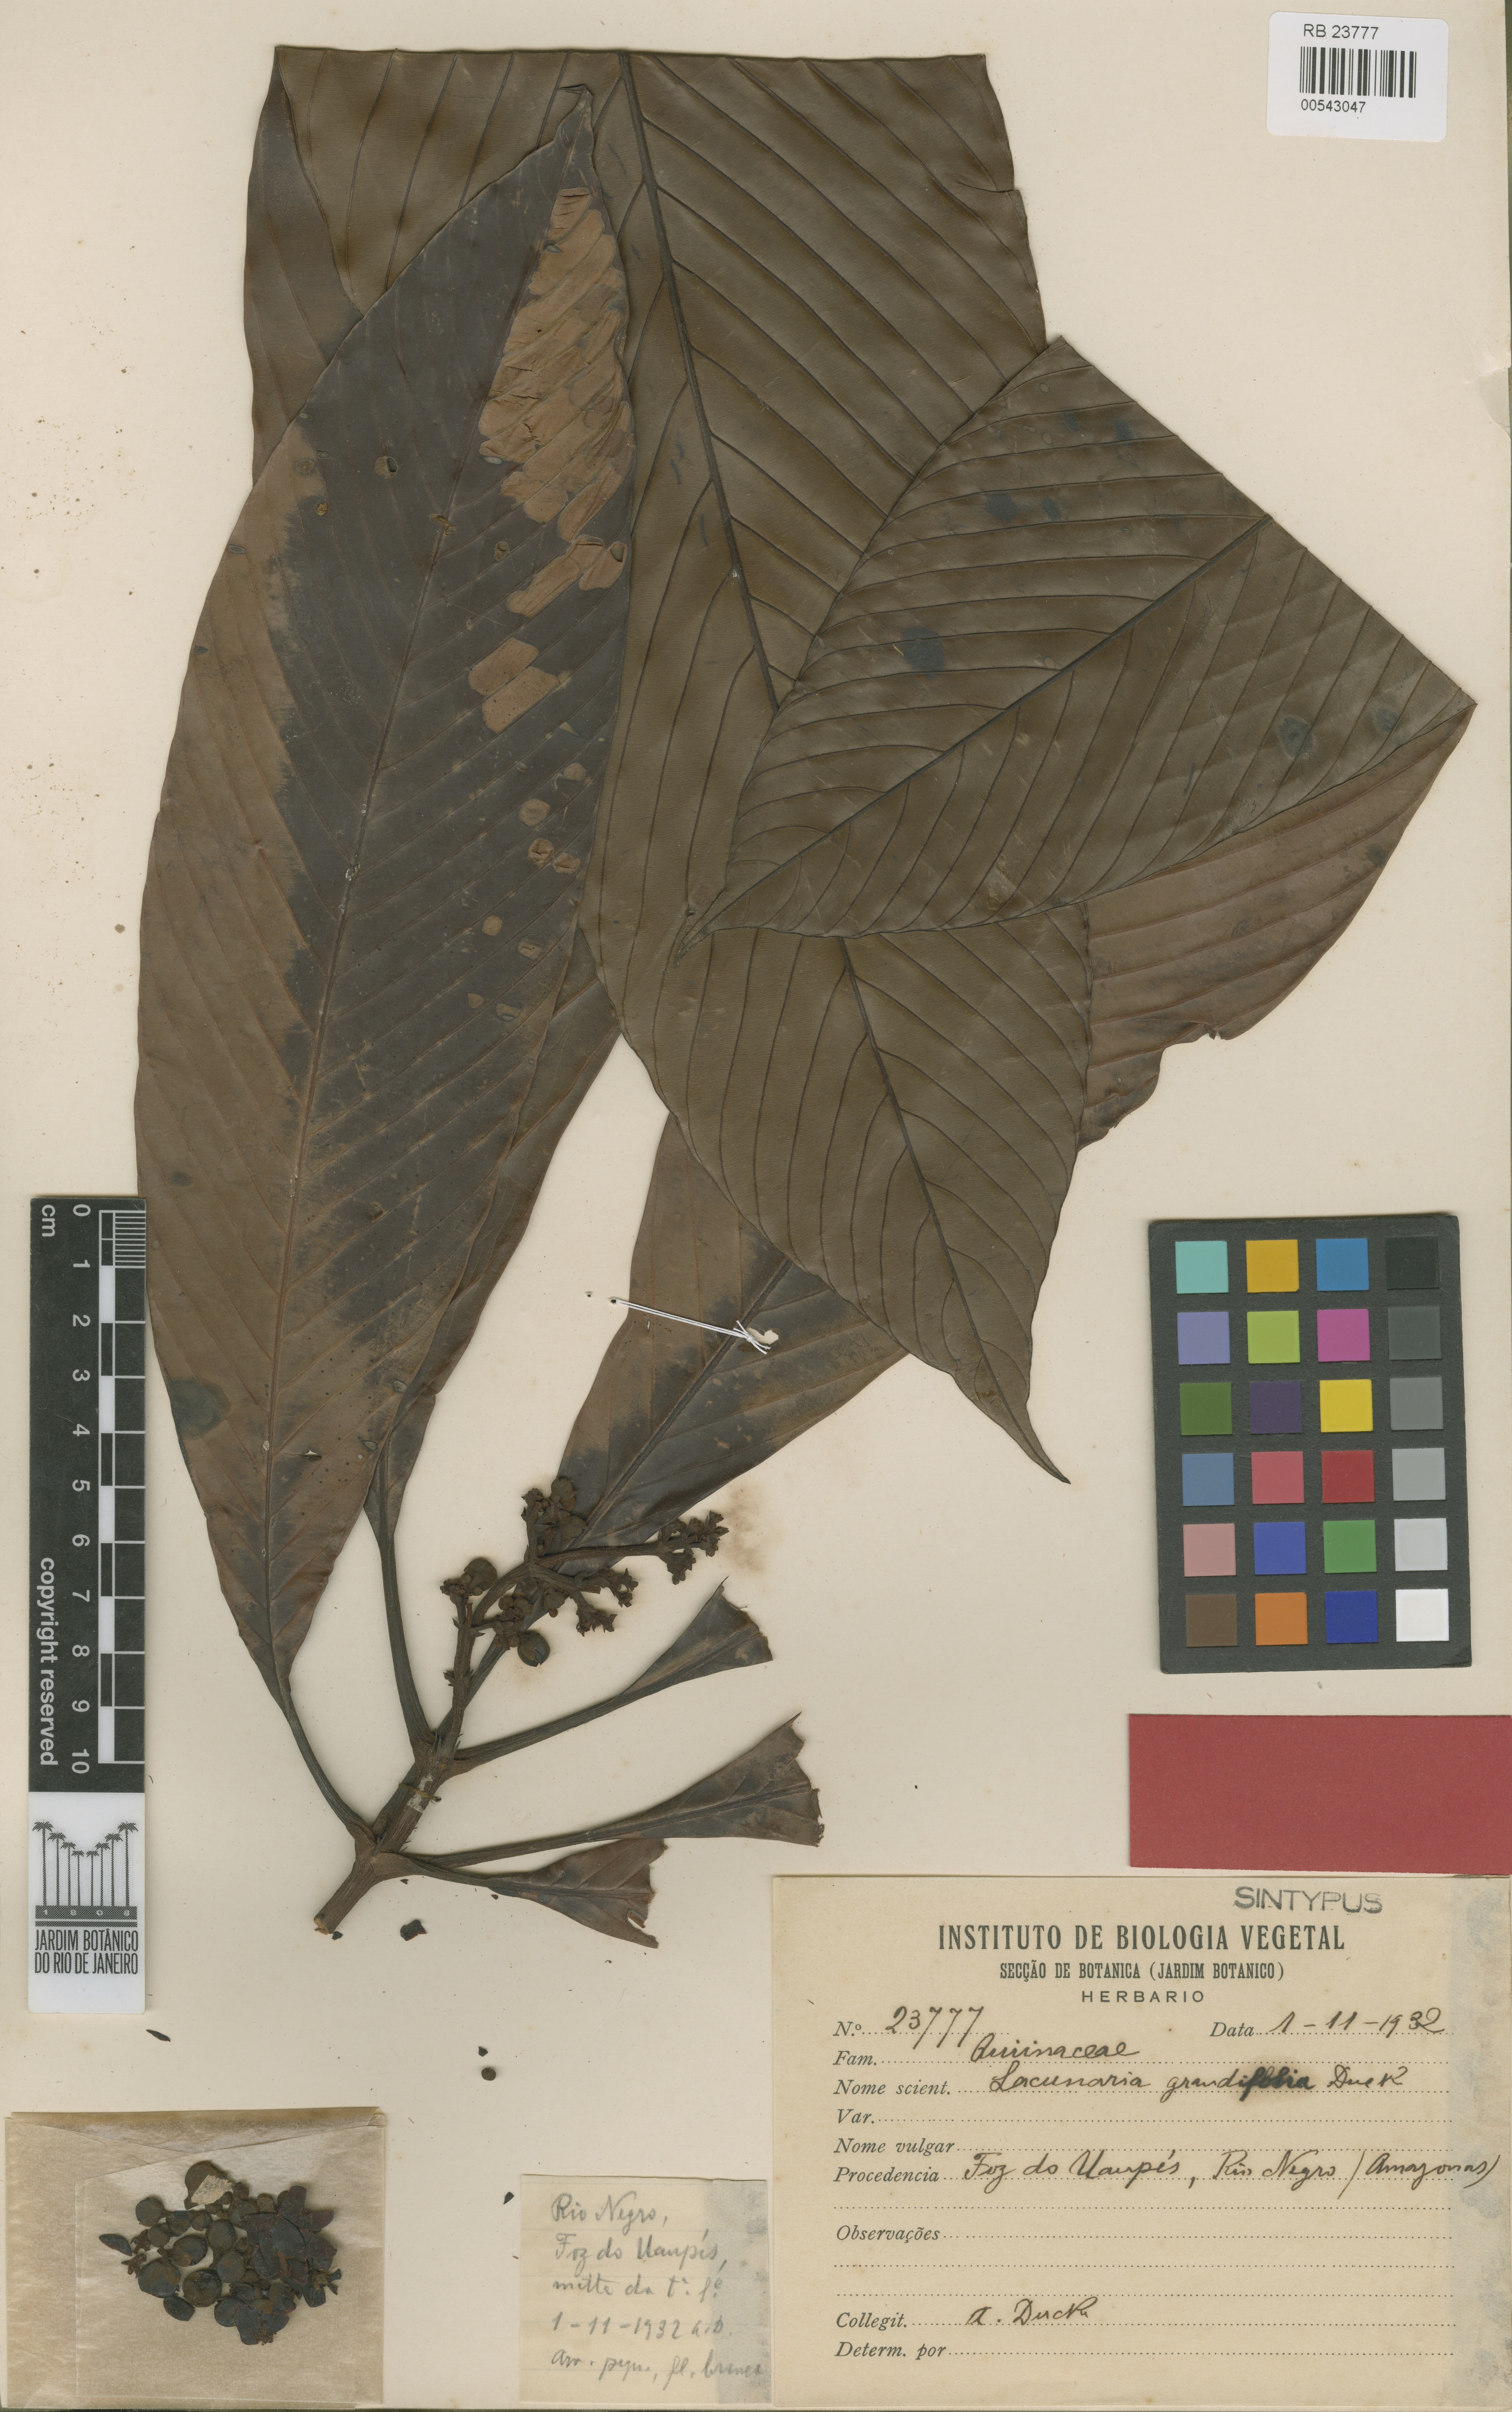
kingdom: Plantae
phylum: Tracheophyta
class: Magnoliopsida
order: Malpighiales
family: Quiinaceae
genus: Lacunaria
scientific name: Lacunaria grandifolia
